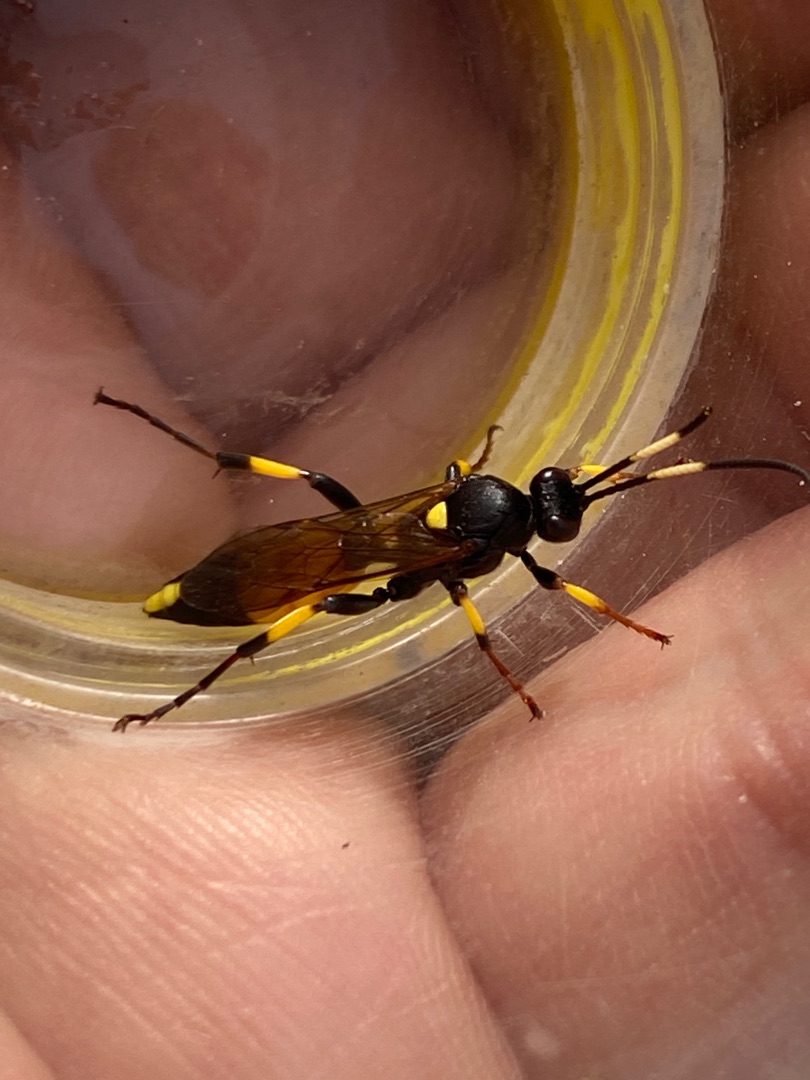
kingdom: Animalia
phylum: Arthropoda
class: Insecta
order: Hymenoptera
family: Ichneumonidae
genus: Ichneumon
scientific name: Ichneumon stramentor
